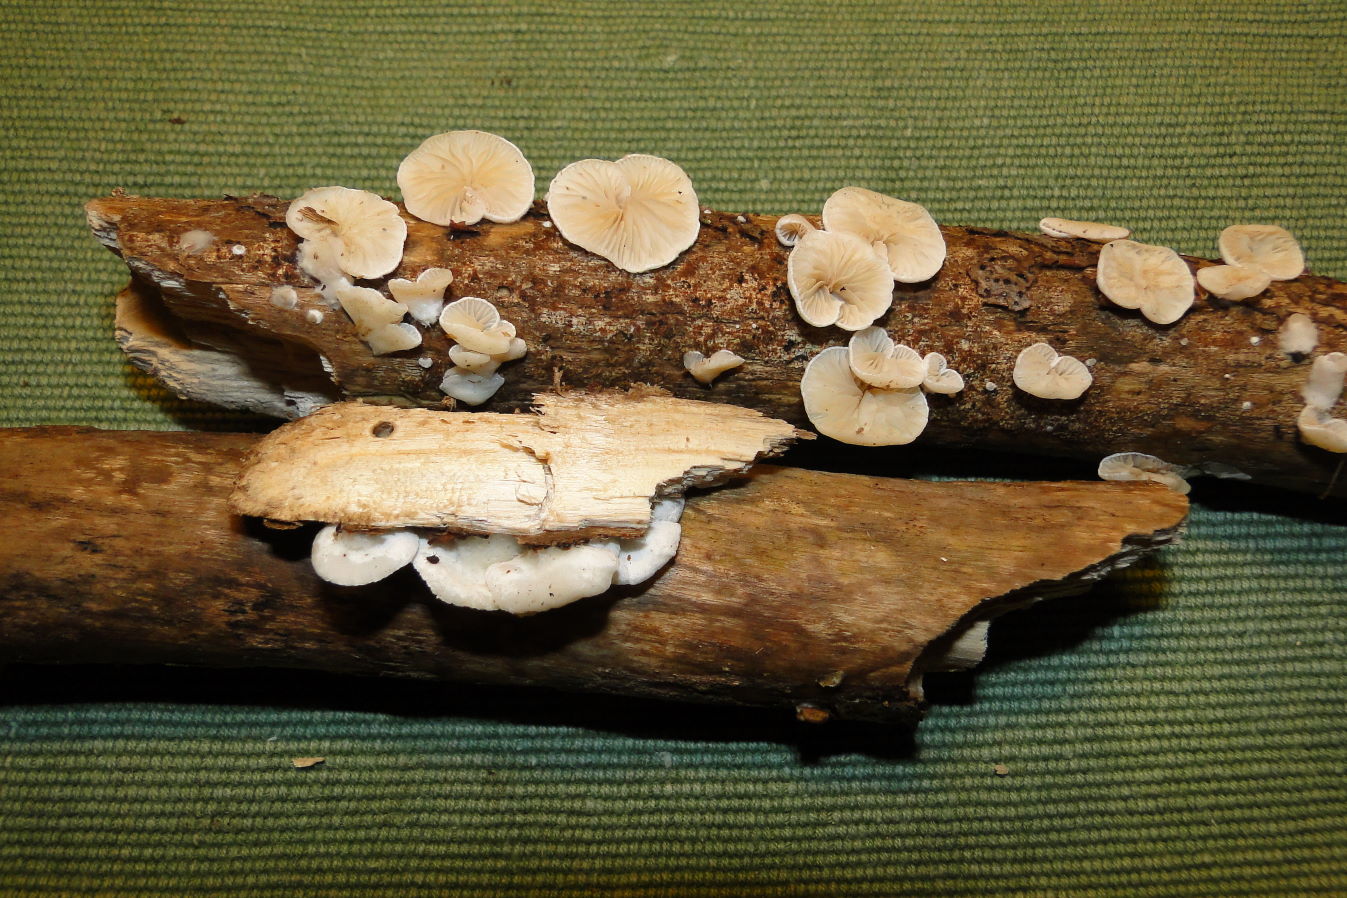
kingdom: Fungi
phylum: Basidiomycota
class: Agaricomycetes
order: Agaricales
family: Crepidotaceae
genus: Crepidotus
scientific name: Crepidotus cesatii
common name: almindelig muslingesvamp
